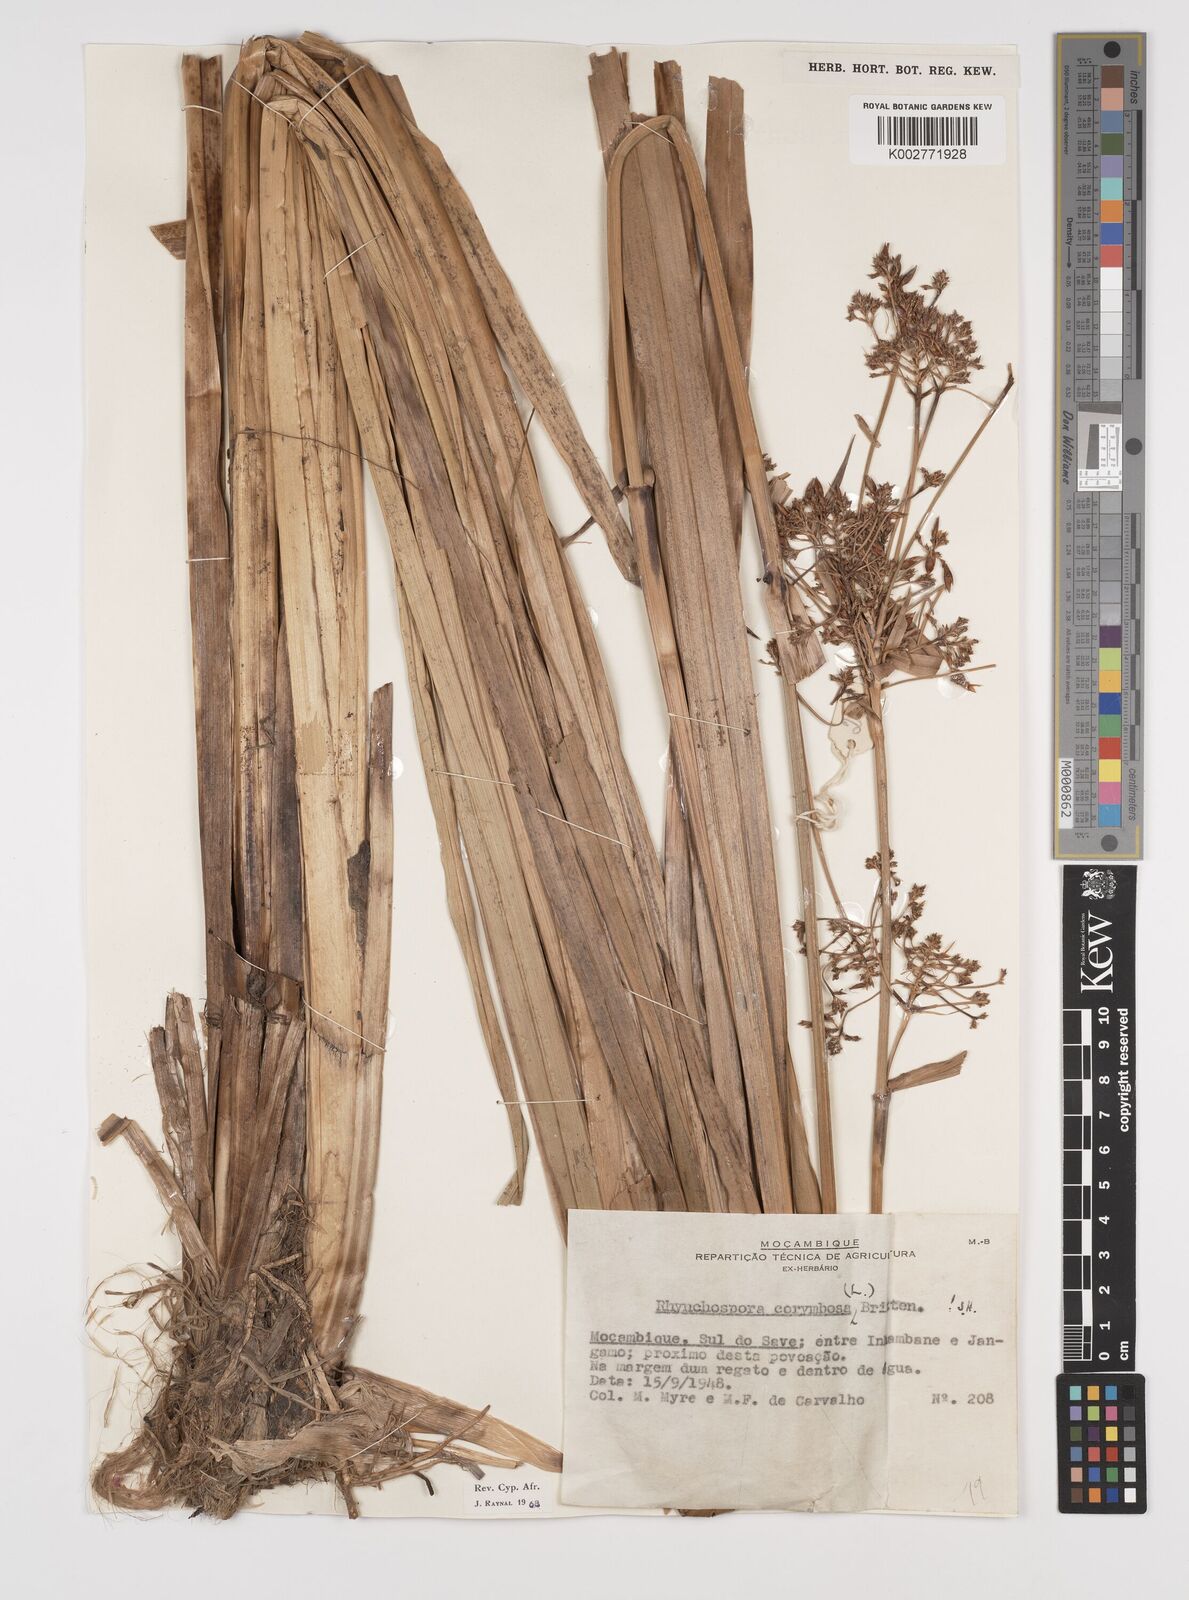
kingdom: Plantae
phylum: Tracheophyta
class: Liliopsida
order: Poales
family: Cyperaceae
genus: Rhynchospora
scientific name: Rhynchospora corymbosa
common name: Golden beak sedge
